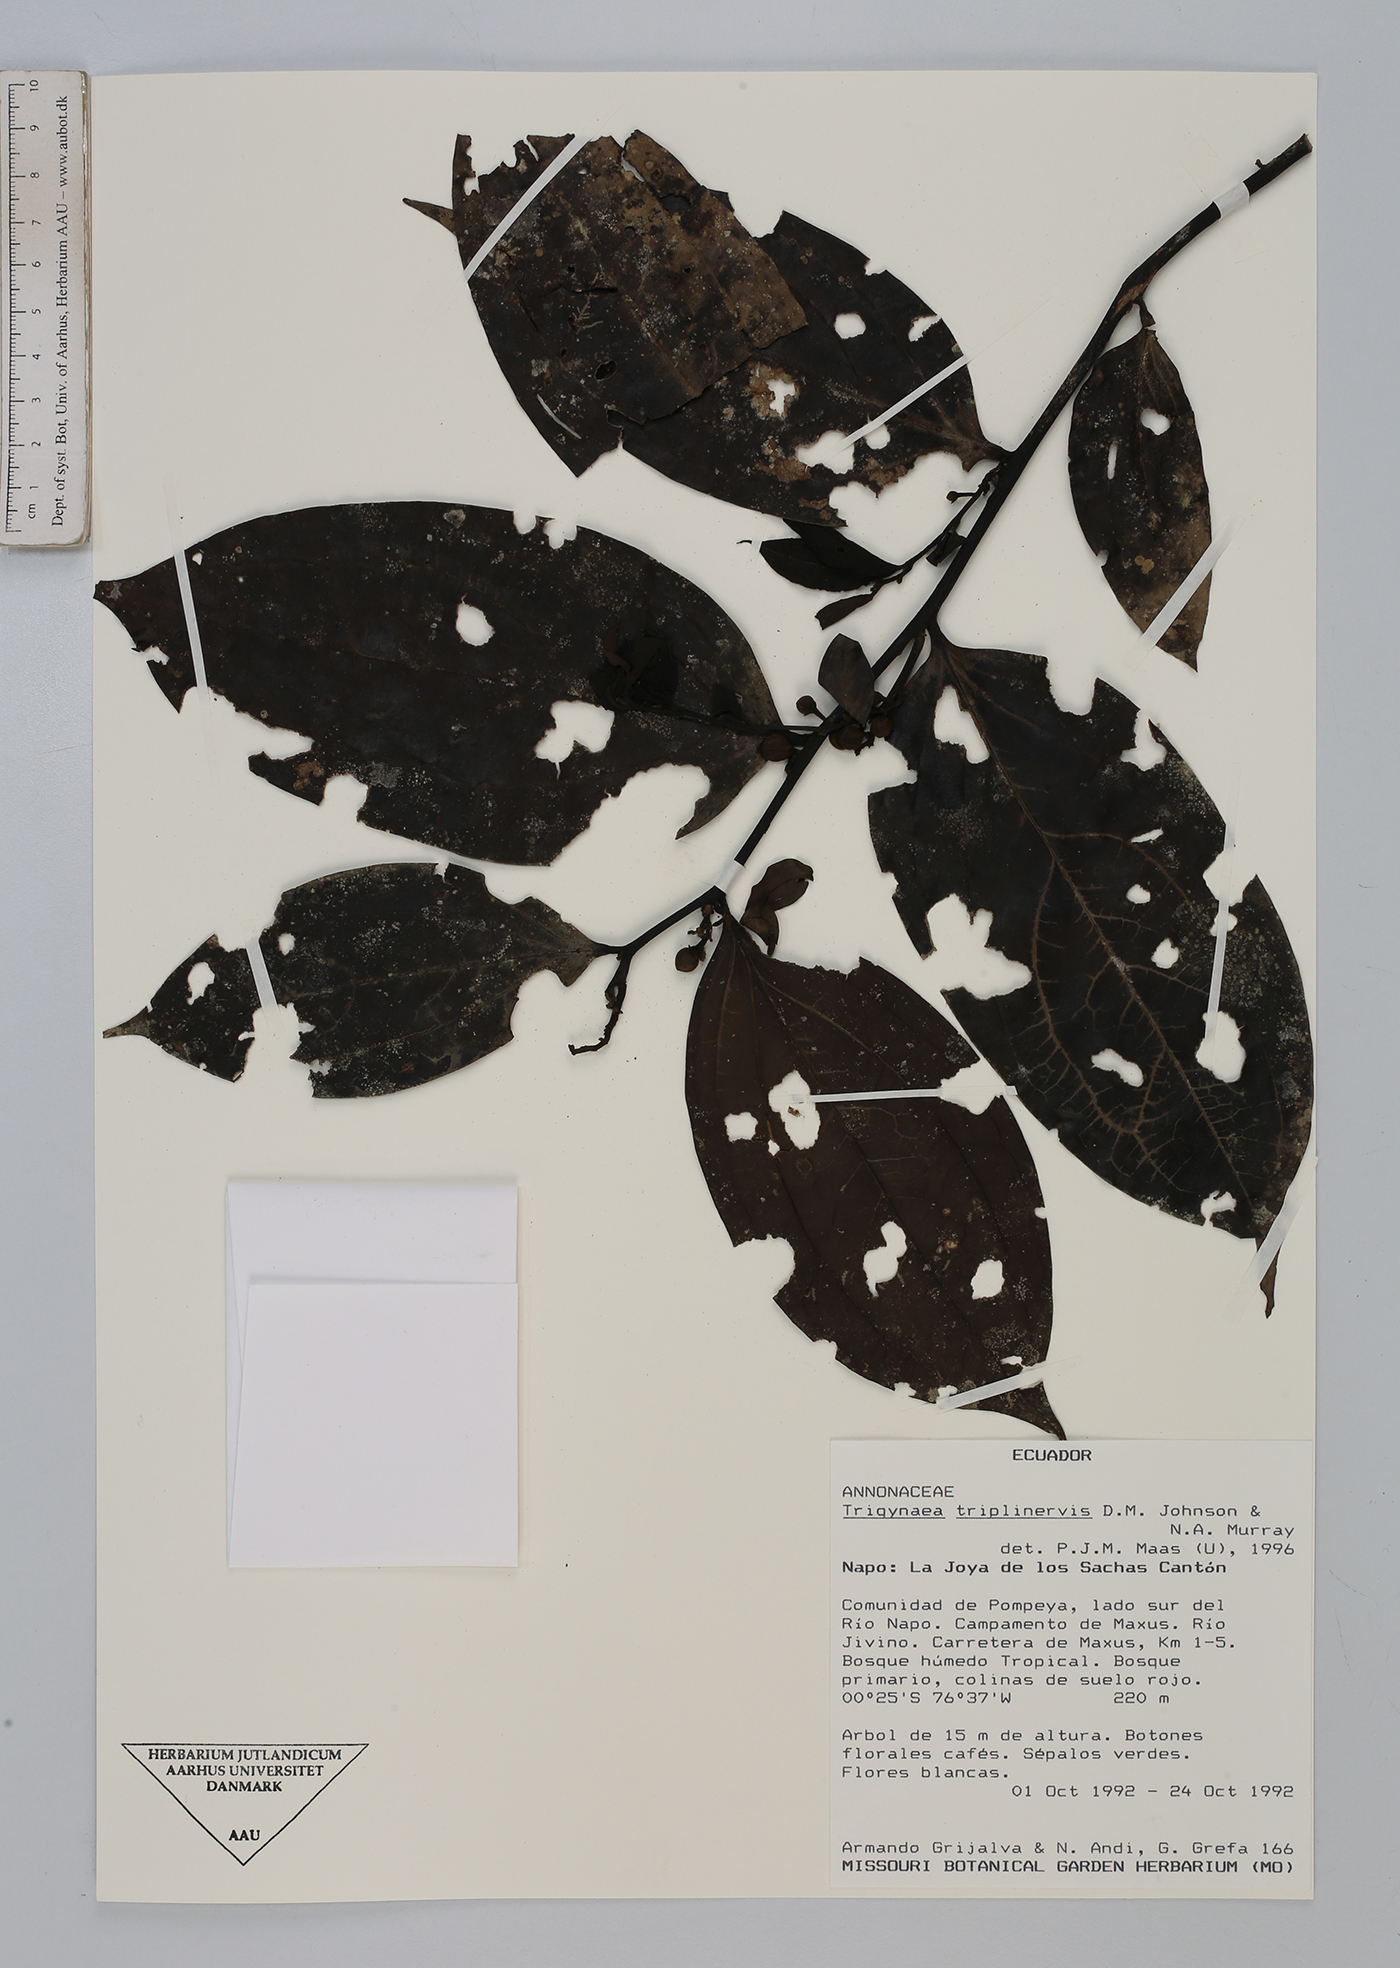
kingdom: Plantae
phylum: Tracheophyta
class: Magnoliopsida
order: Magnoliales
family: Annonaceae
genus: Trigynaea
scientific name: Trigynaea triplinervis
